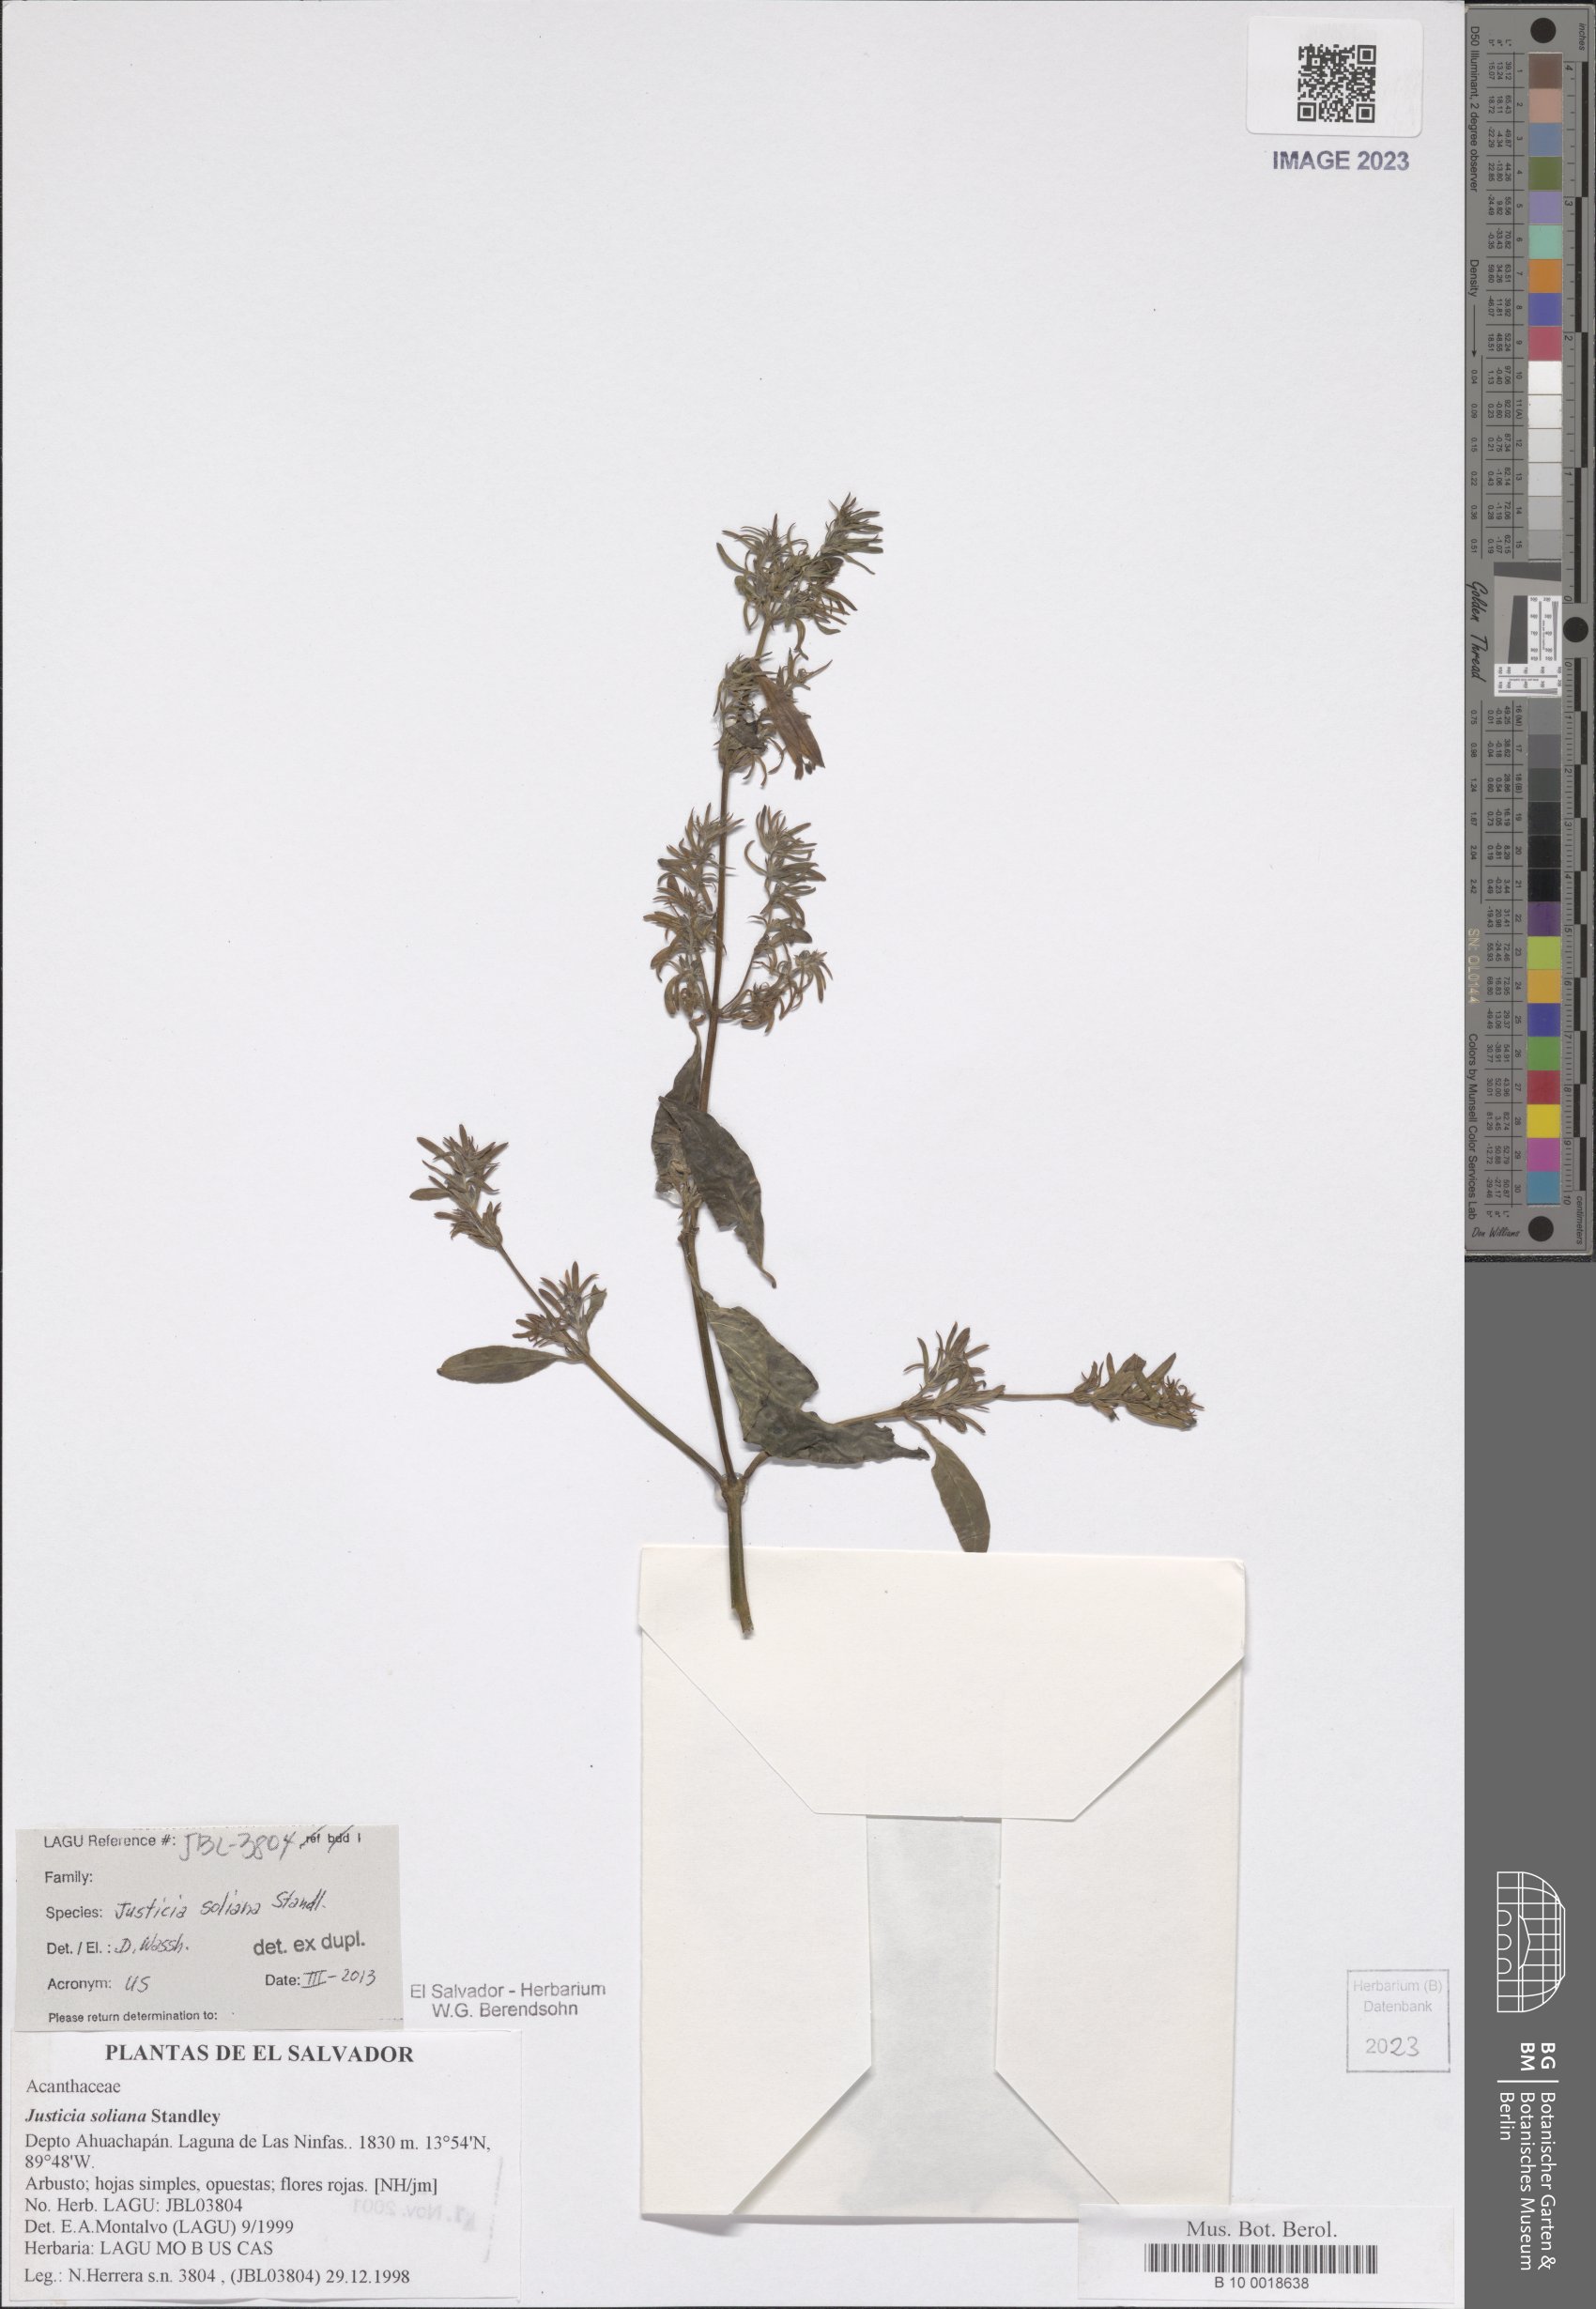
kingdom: Plantae
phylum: Tracheophyta
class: Magnoliopsida
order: Lamiales
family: Acanthaceae
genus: Justicia
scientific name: Justicia soliana
